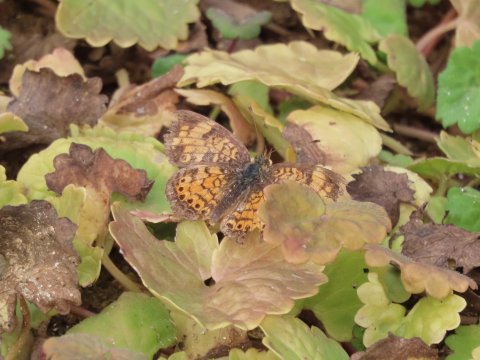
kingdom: Animalia
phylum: Arthropoda
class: Insecta
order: Lepidoptera
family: Nymphalidae
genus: Phyciodes
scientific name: Phyciodes tharos
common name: Pearl Crescent
